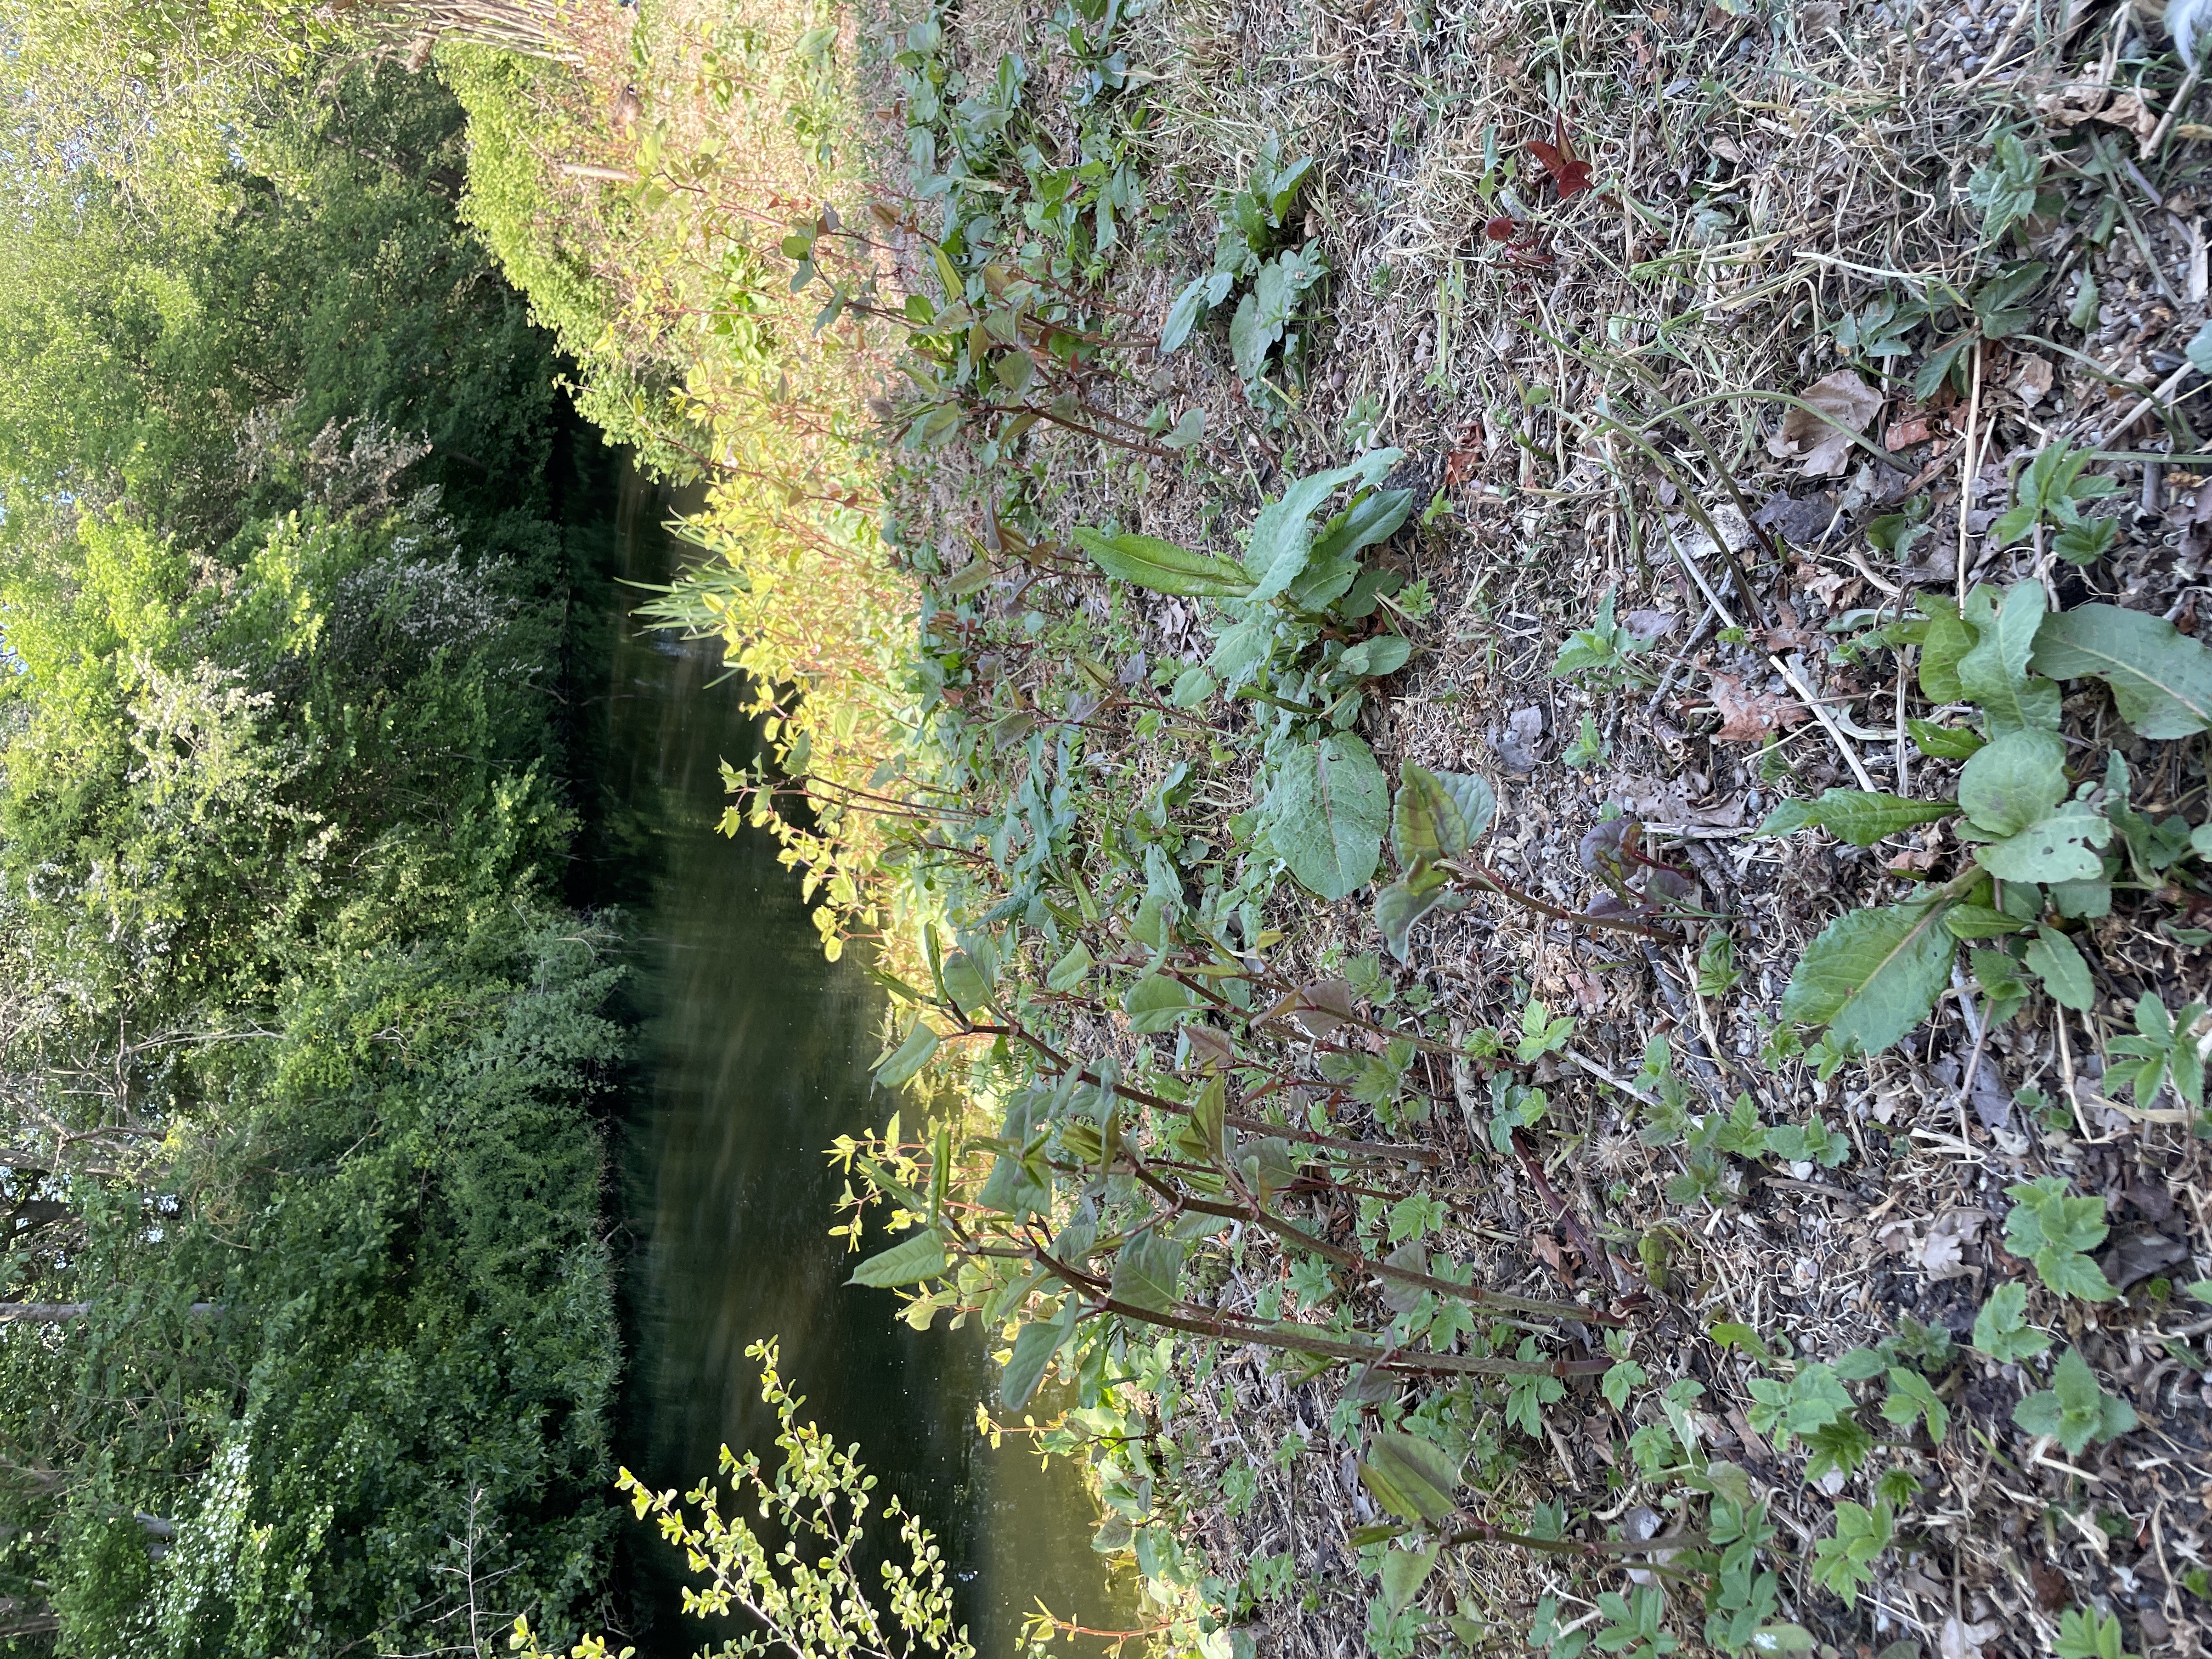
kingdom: Plantae
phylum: Tracheophyta
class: Magnoliopsida
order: Caryophyllales
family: Polygonaceae
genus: Reynoutria
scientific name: Reynoutria japonica
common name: Japan-pileurt
